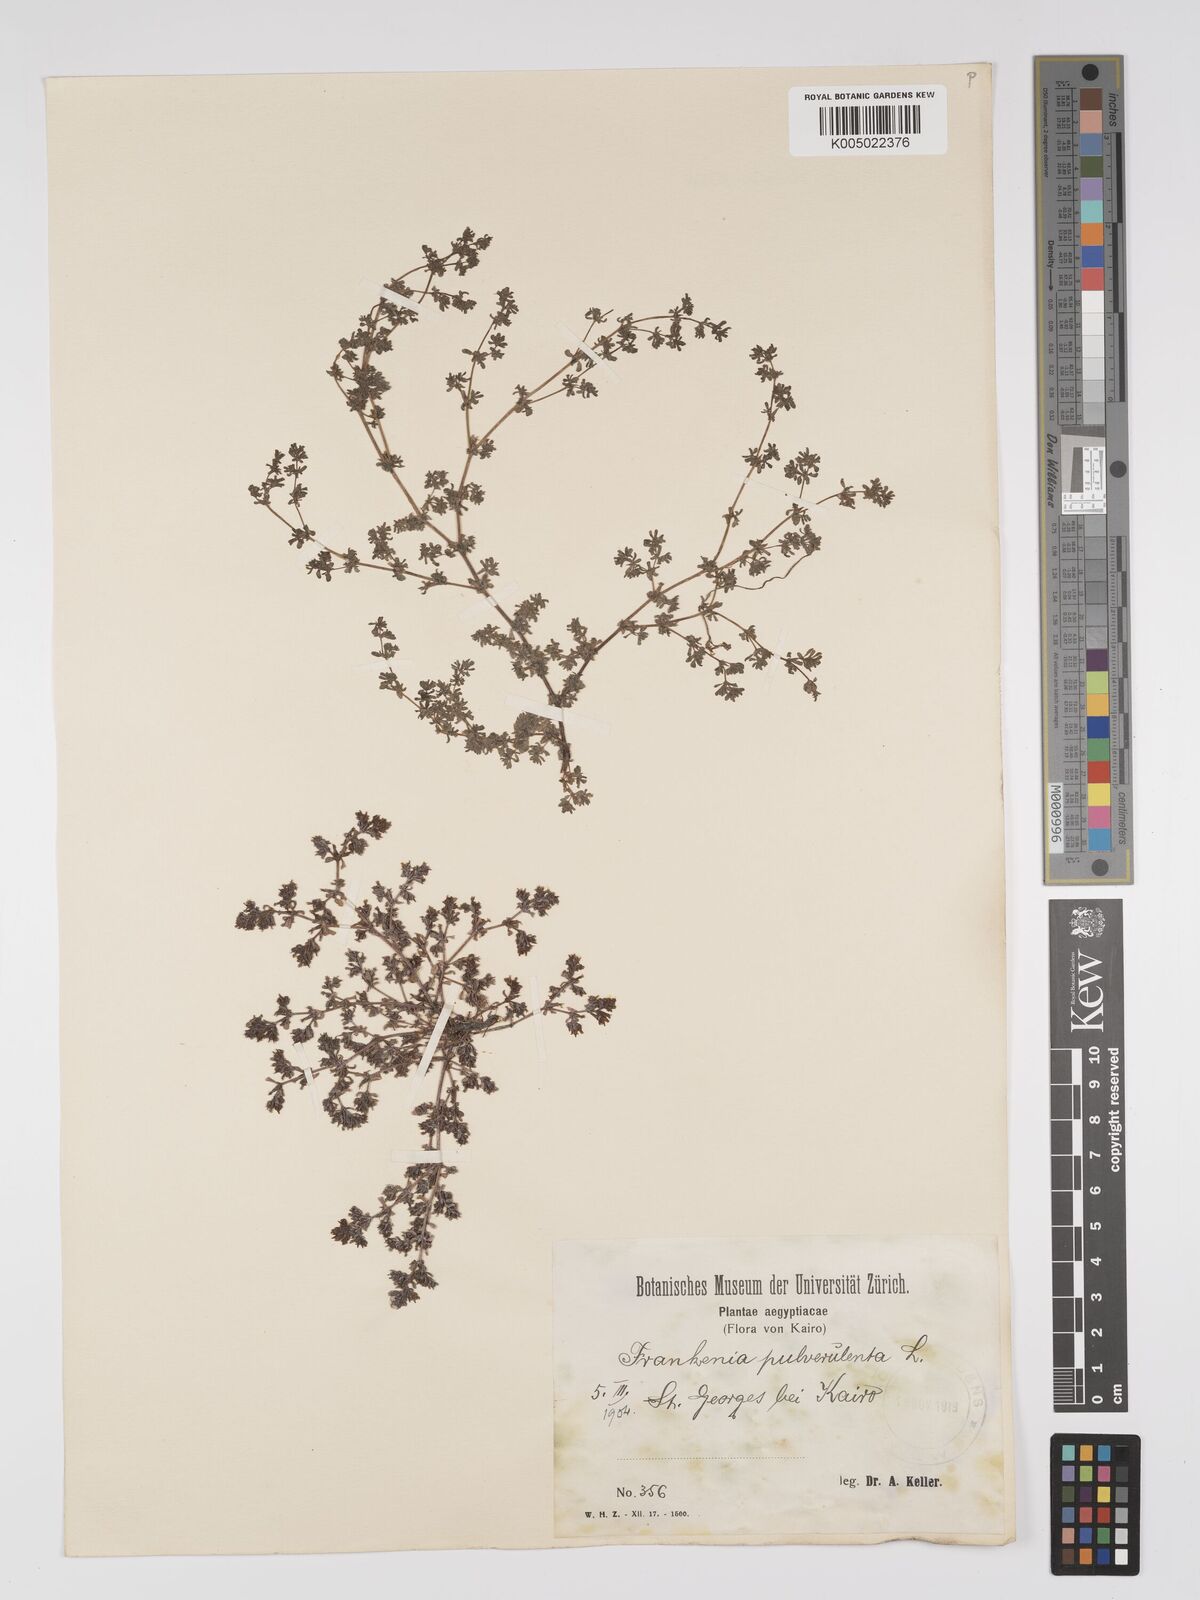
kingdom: Plantae
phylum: Tracheophyta
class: Magnoliopsida
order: Caryophyllales
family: Frankeniaceae
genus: Frankenia
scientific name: Frankenia pulverulenta
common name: European seaheath
